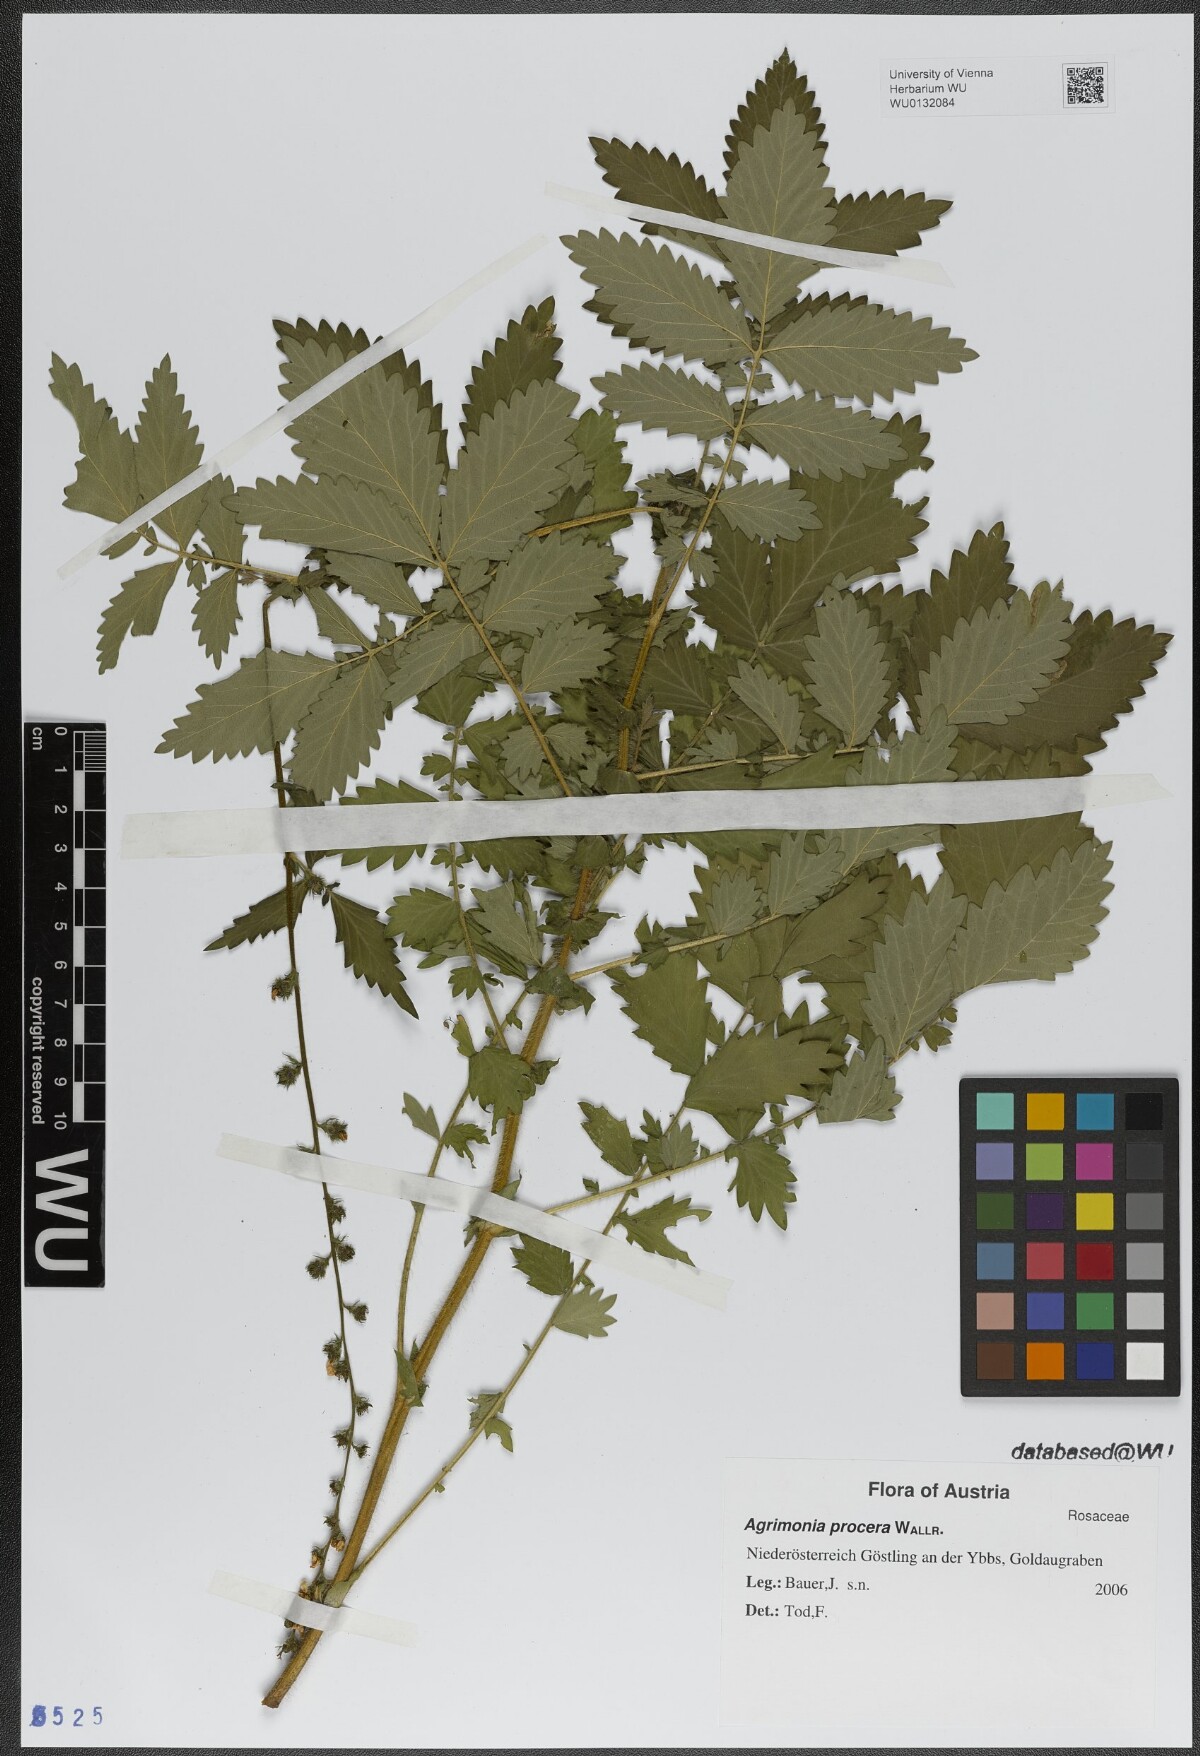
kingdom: Plantae
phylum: Tracheophyta
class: Magnoliopsida
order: Rosales
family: Rosaceae
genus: Agrimonia
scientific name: Agrimonia procera
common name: Fragrant agrimony
